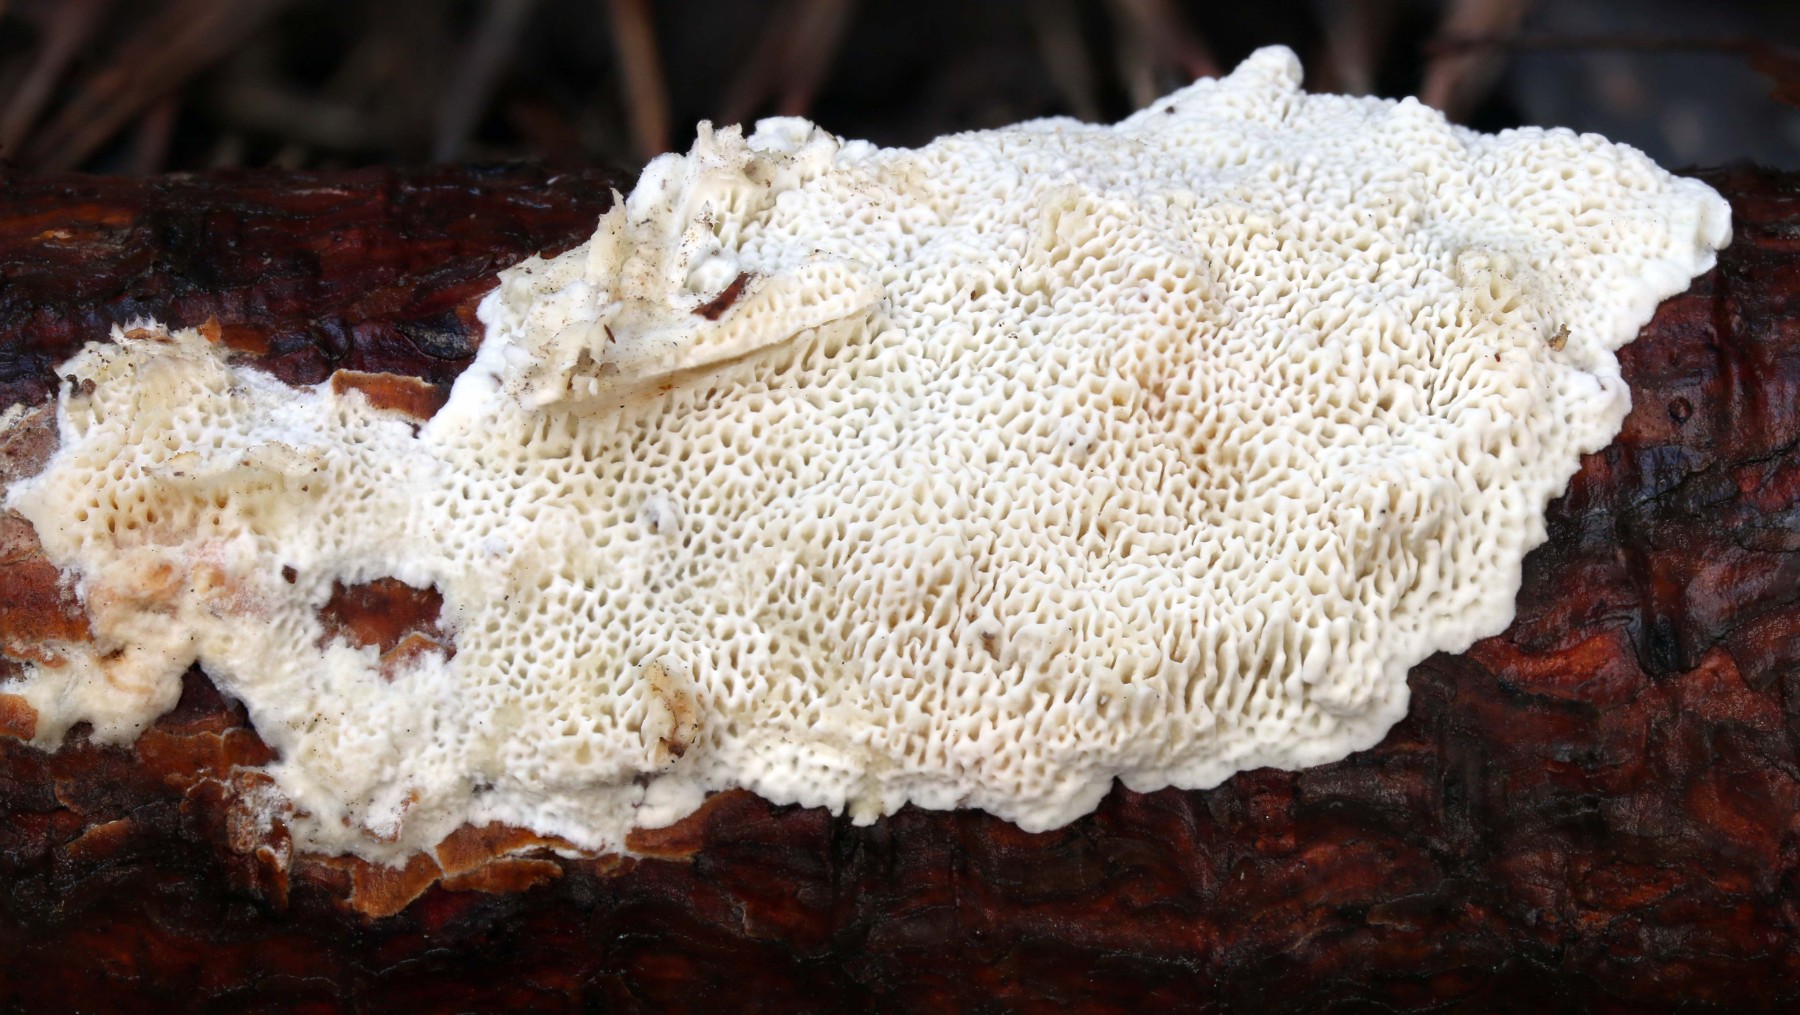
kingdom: Fungi
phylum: Basidiomycota
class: Agaricomycetes
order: Polyporales
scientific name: Polyporales
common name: poresvampordenen
